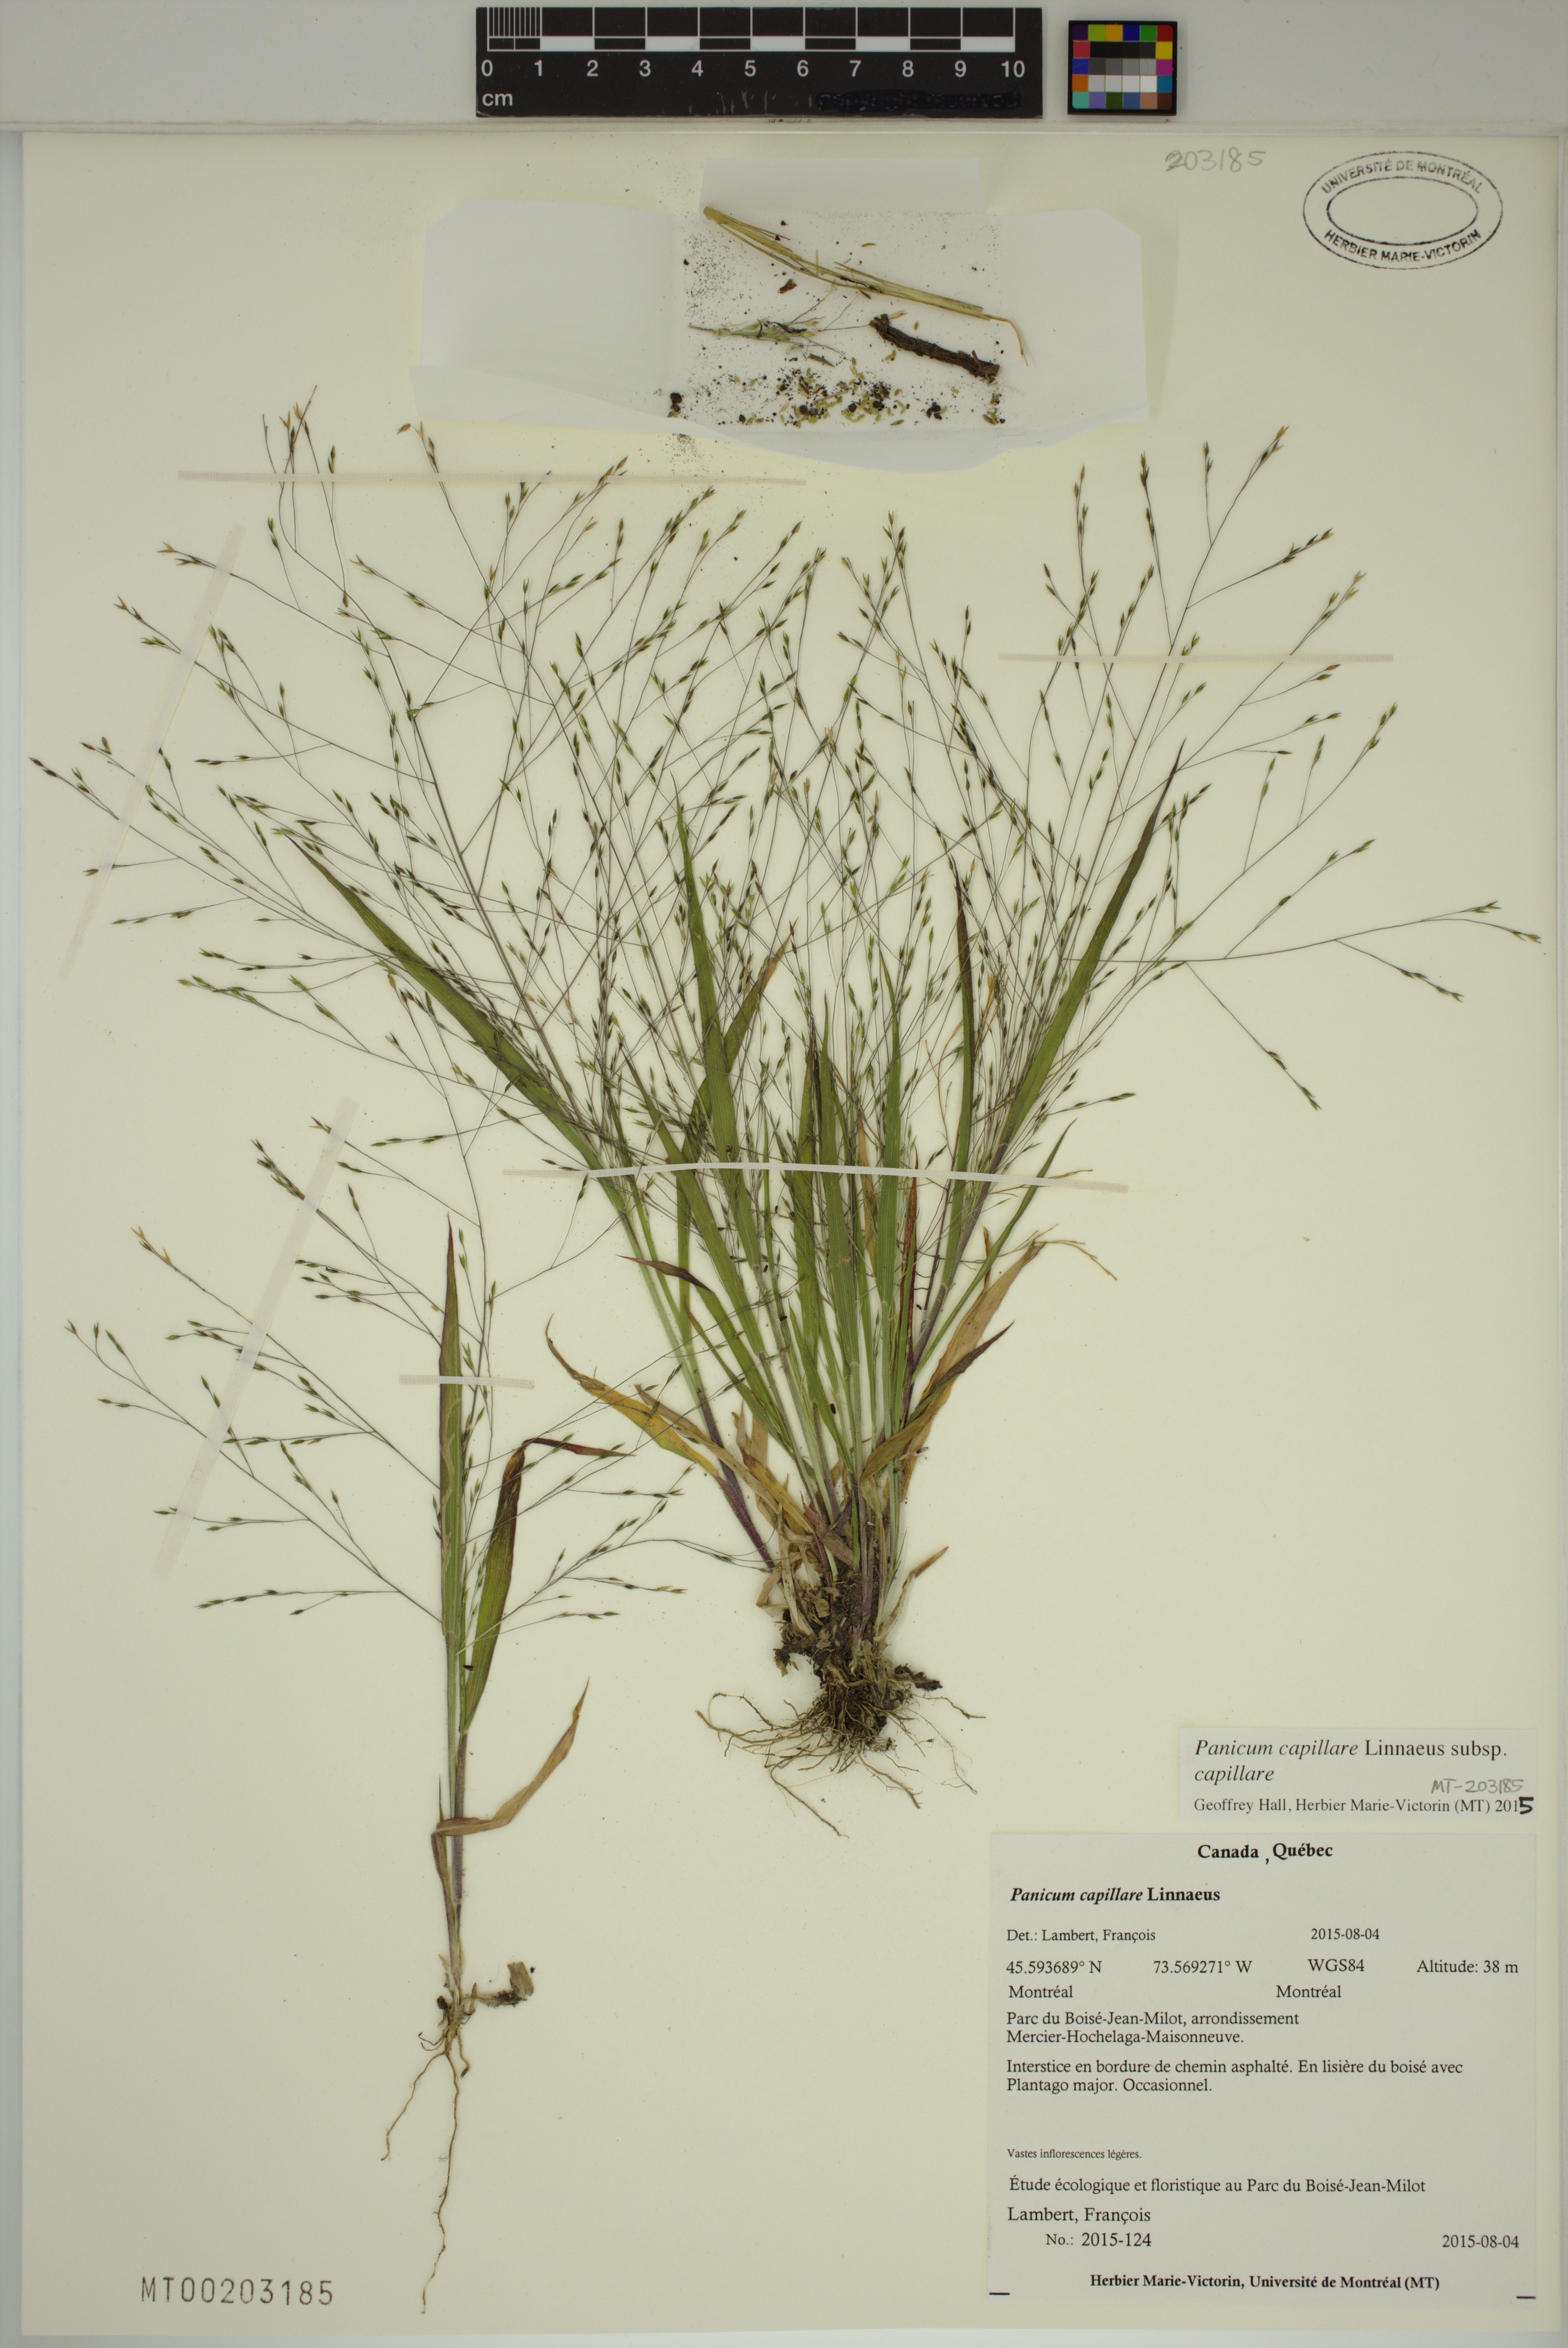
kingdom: Plantae
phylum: Tracheophyta
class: Liliopsida
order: Poales
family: Poaceae
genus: Panicum
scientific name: Panicum capillare
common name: Witch-grass
